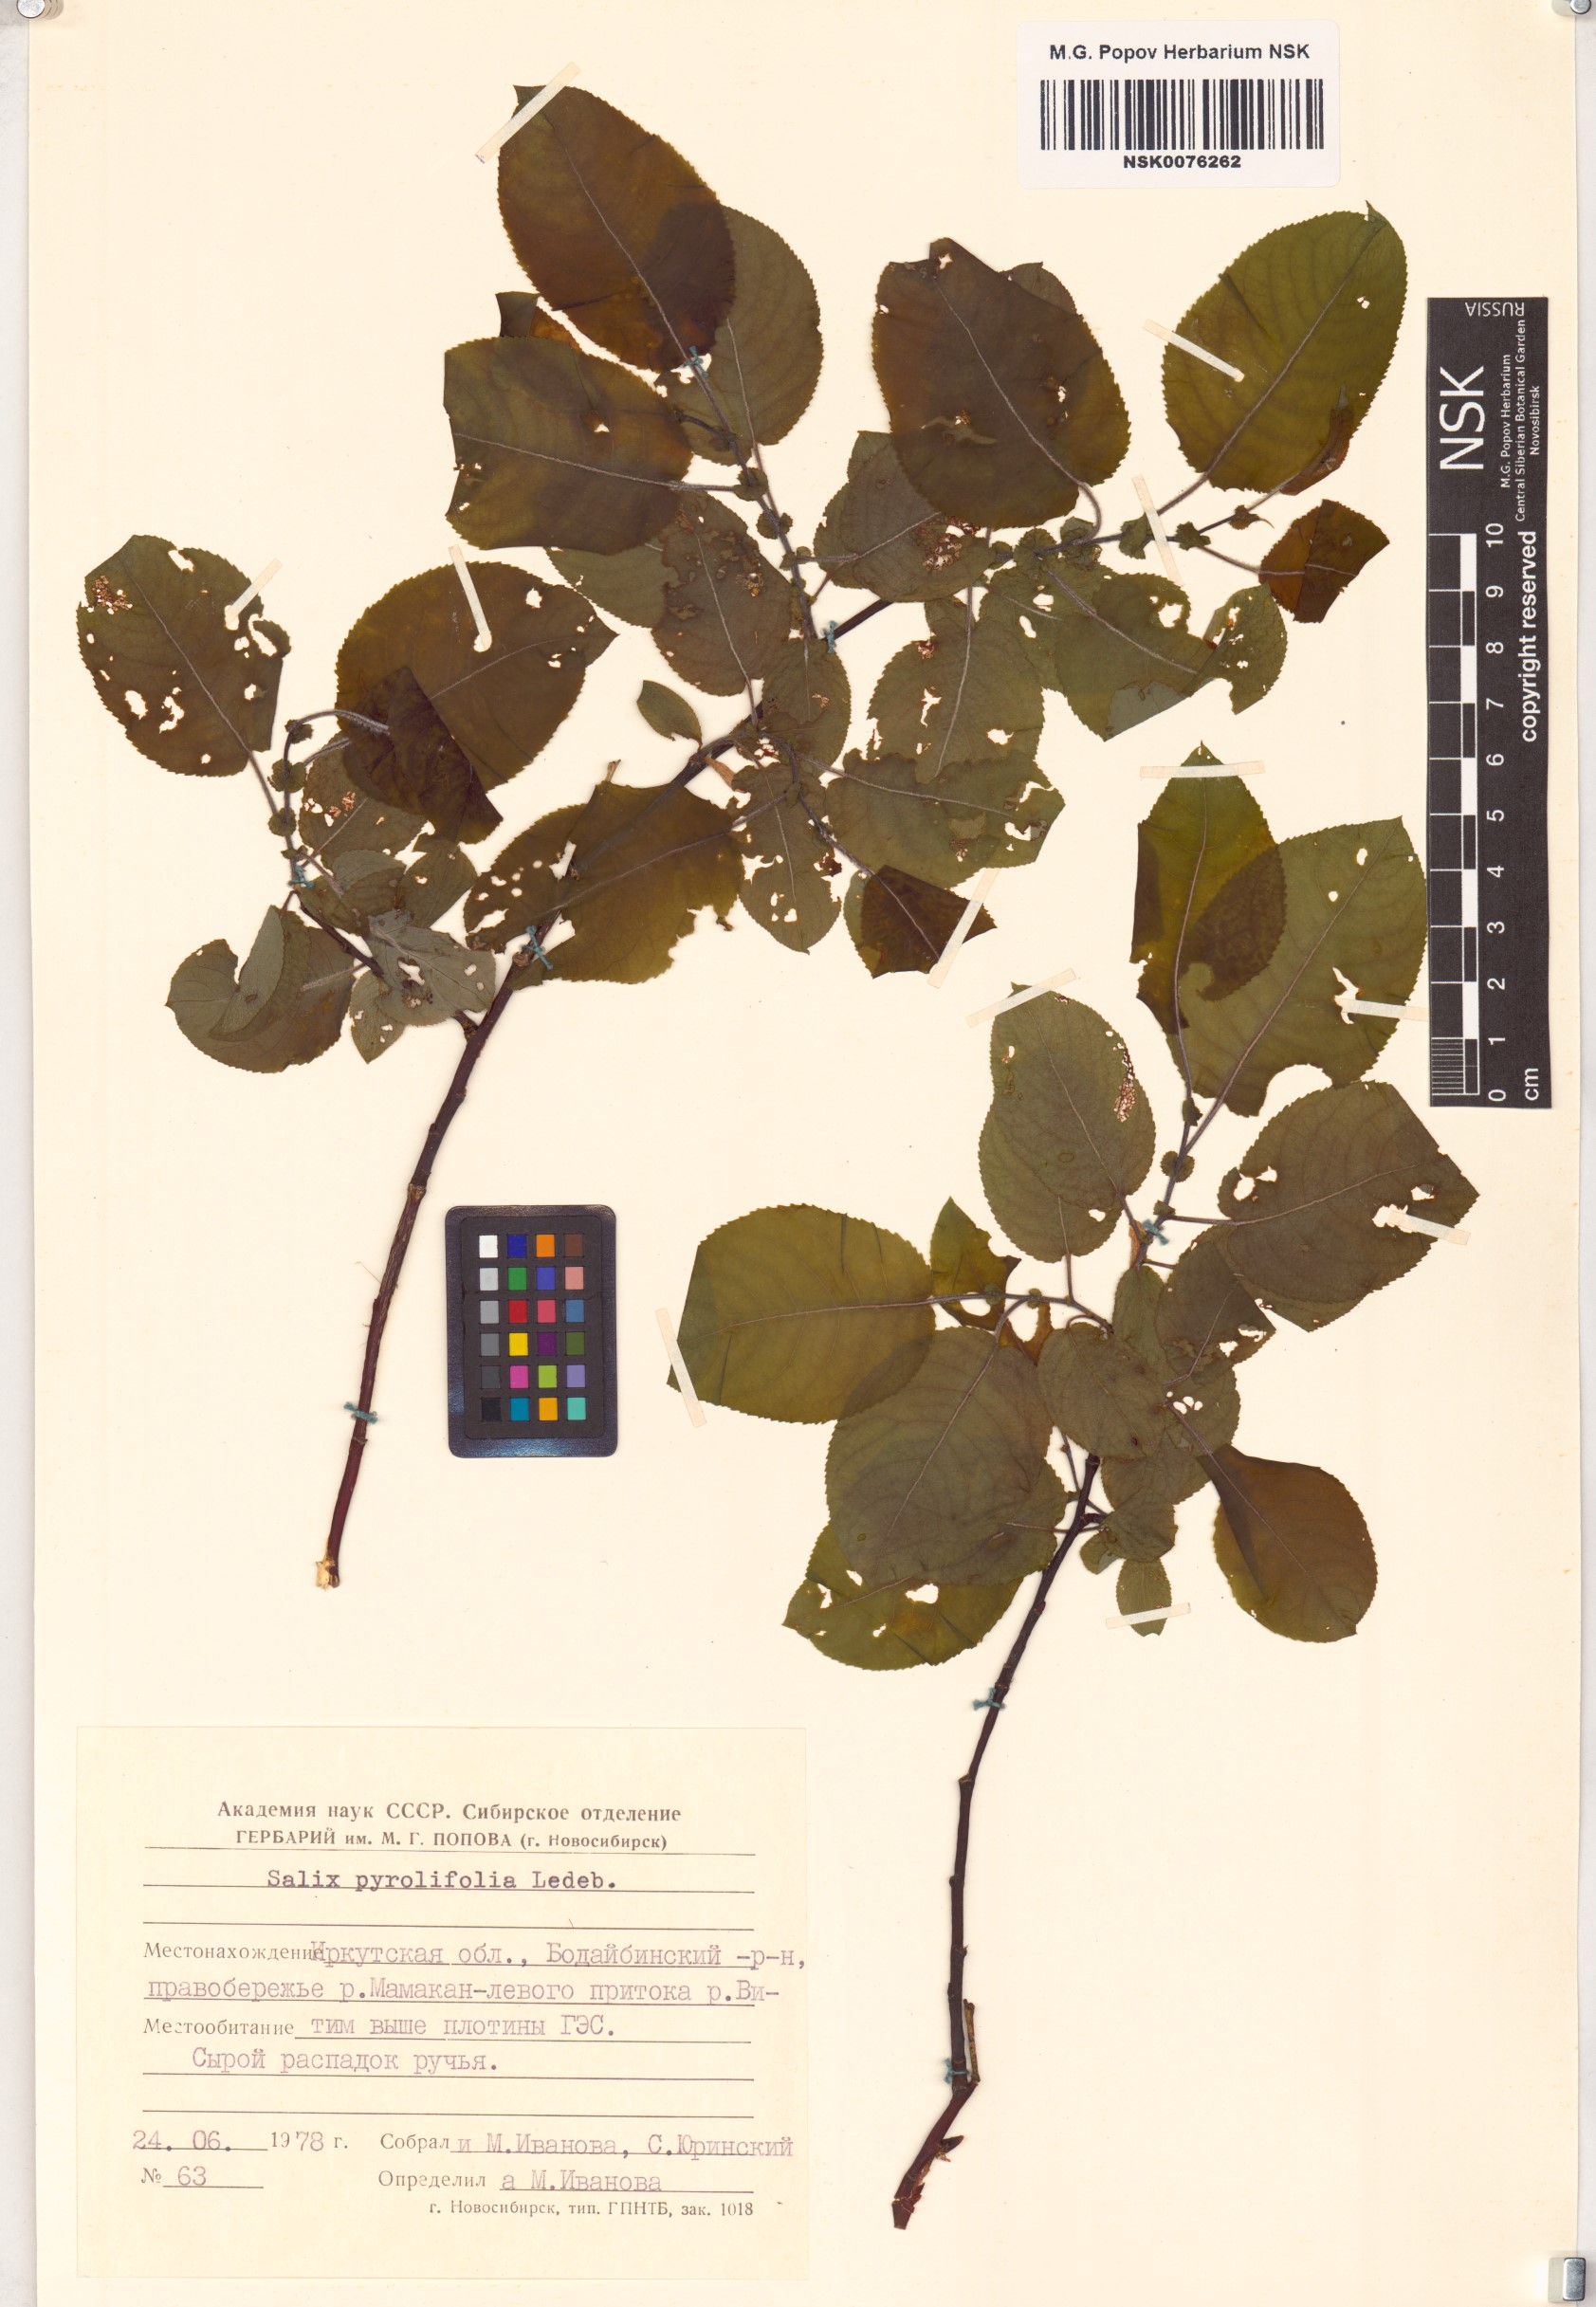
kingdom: Plantae
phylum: Tracheophyta
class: Magnoliopsida
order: Malpighiales
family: Salicaceae
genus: Salix
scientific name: Salix pyrolifolia
